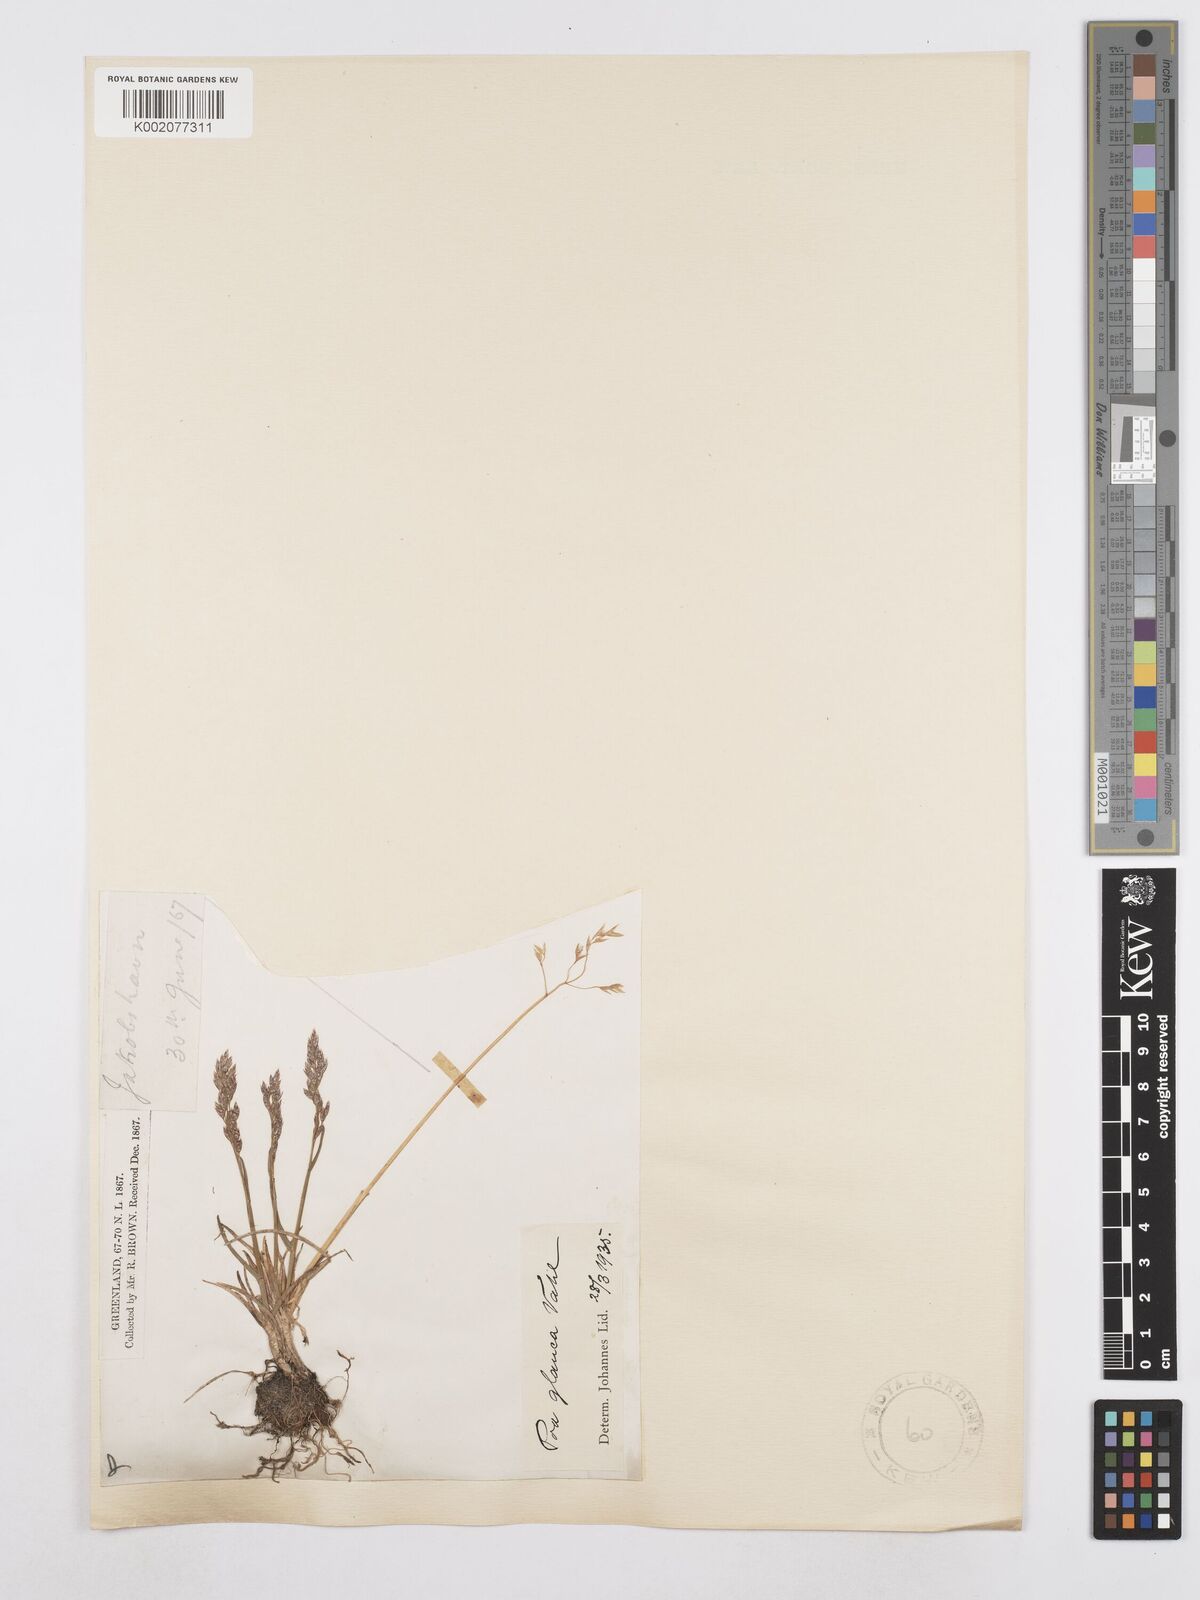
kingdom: Plantae
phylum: Tracheophyta
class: Liliopsida
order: Poales
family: Poaceae
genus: Poa
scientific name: Poa glauca
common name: Glaucous bluegrass
